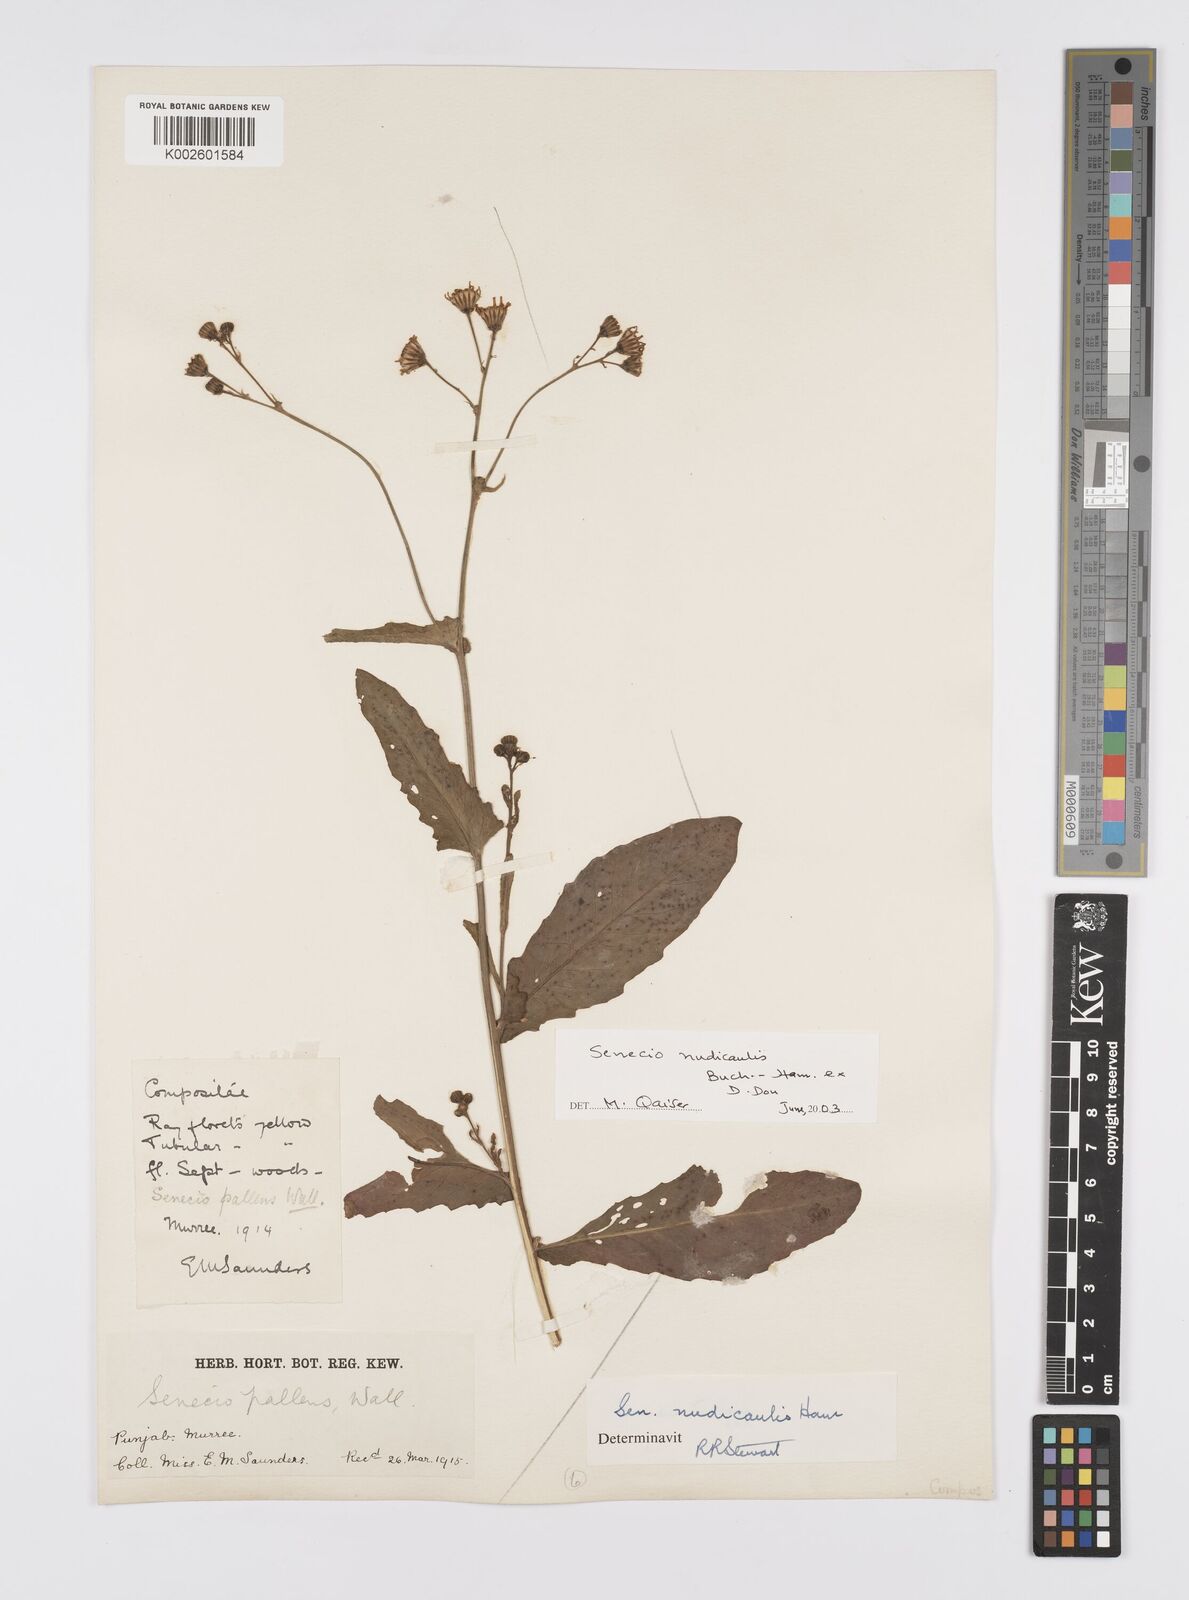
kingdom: Plantae
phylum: Tracheophyta
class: Magnoliopsida
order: Asterales
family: Asteraceae
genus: Jacobaea
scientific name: Jacobaea nudicaulis
